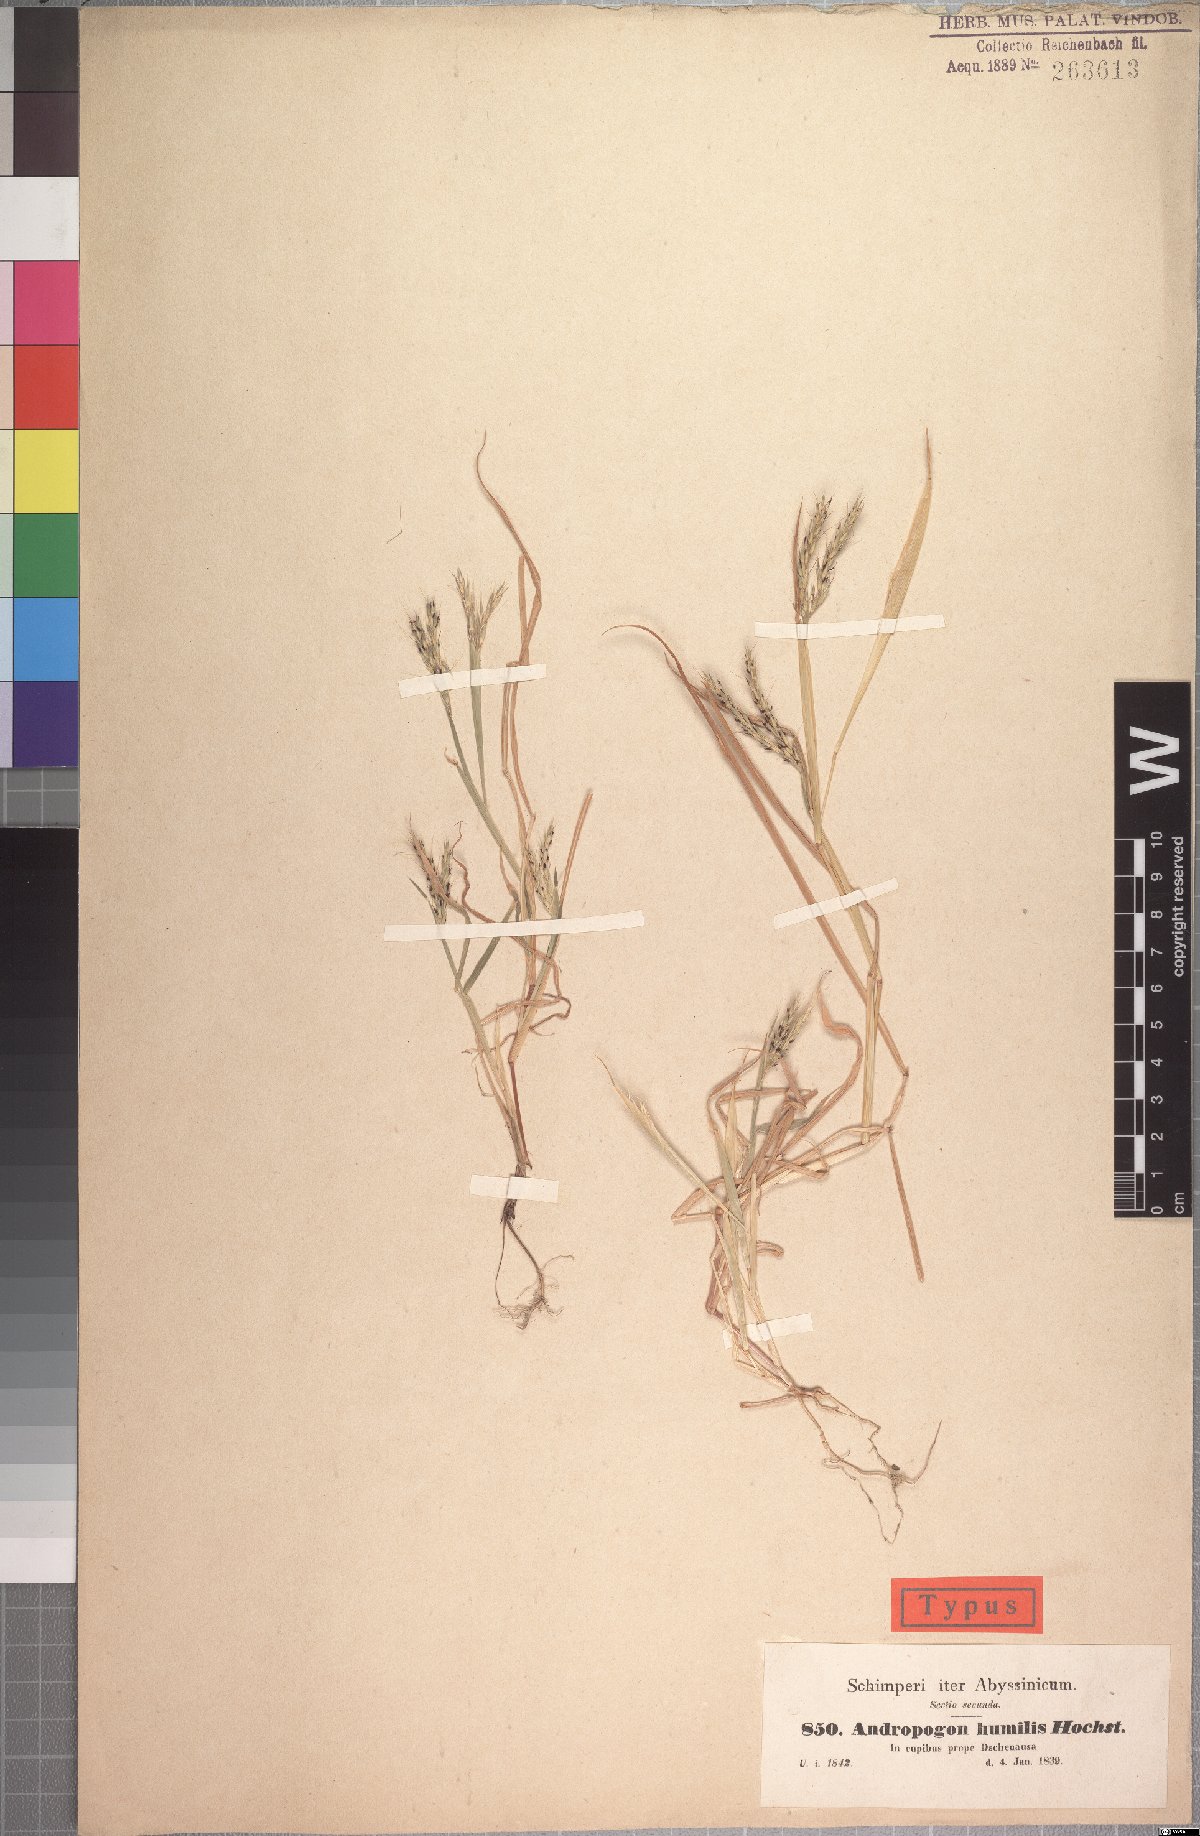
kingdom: Plantae
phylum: Tracheophyta
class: Liliopsida
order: Poales
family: Poaceae
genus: Andropogon
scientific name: Andropogon amethystinus
